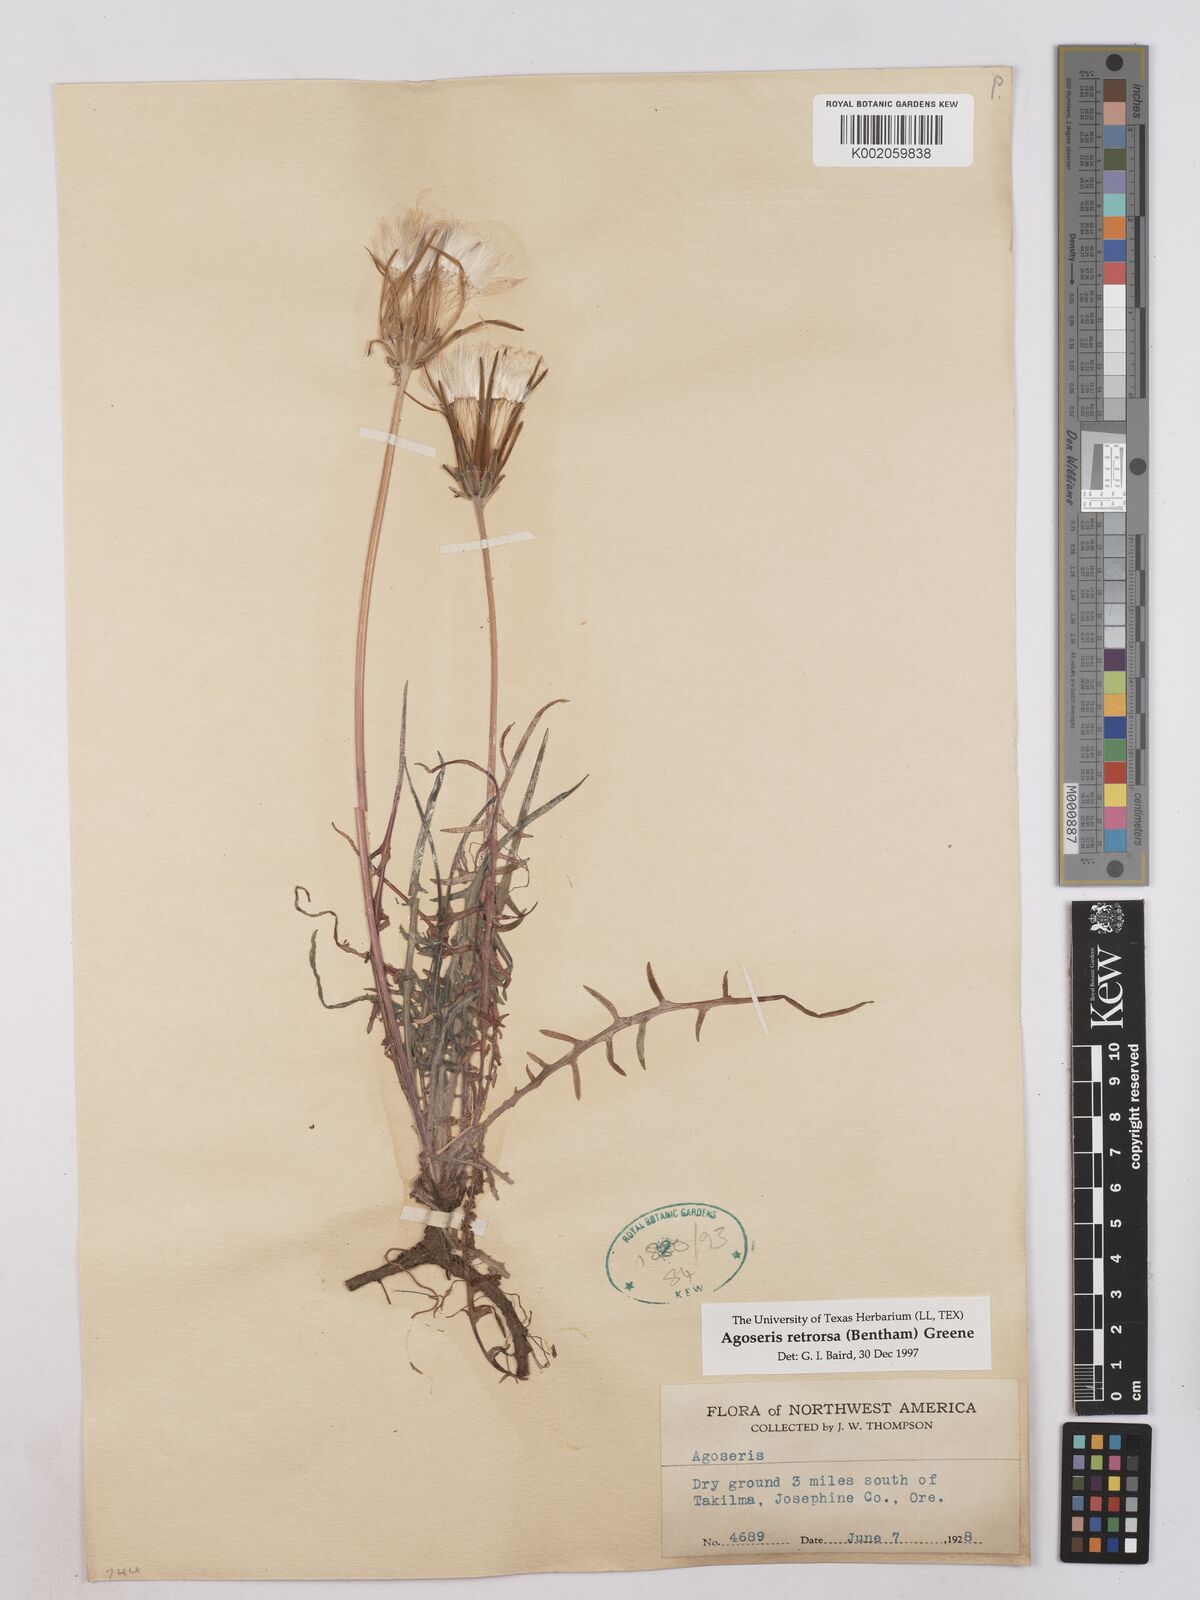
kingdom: Plantae
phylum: Tracheophyta
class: Magnoliopsida
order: Asterales
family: Asteraceae
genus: Agoseris
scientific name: Agoseris retrorsa
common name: Spearleaf agoseris
